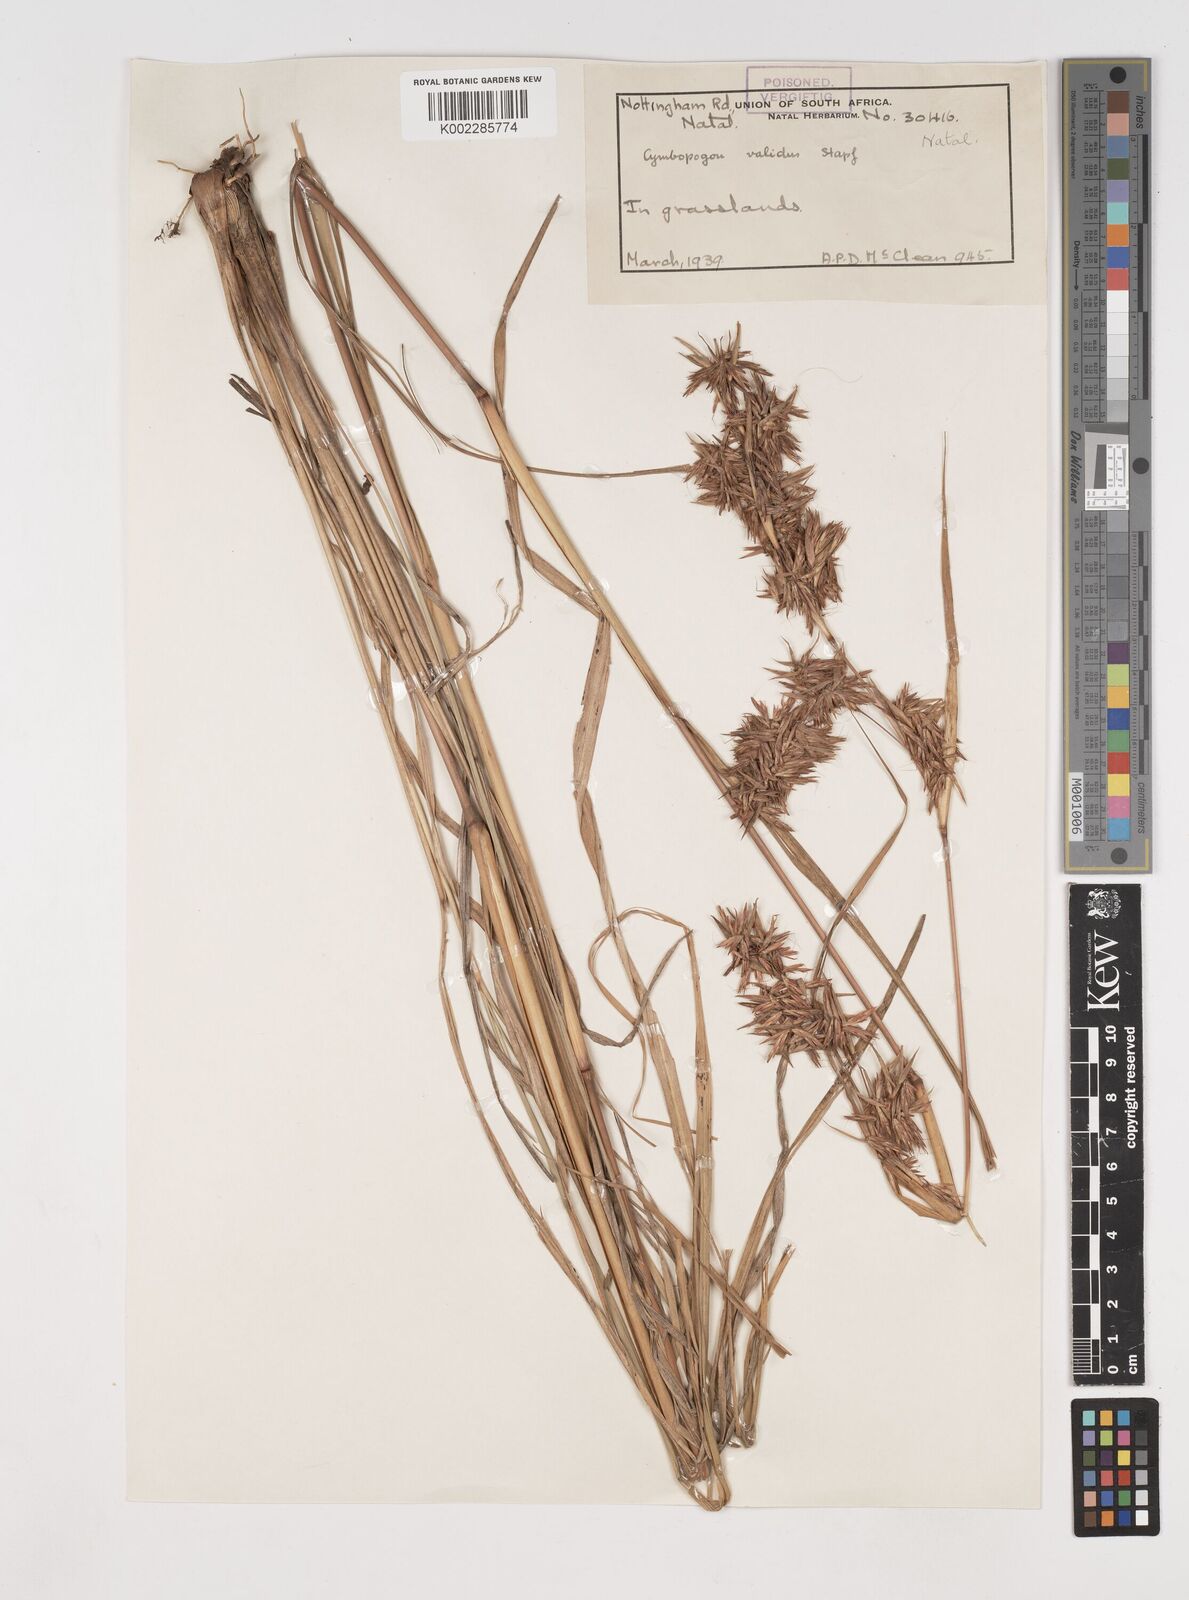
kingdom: Plantae
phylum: Tracheophyta
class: Liliopsida
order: Poales
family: Poaceae
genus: Cymbopogon
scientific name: Cymbopogon nardus
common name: Giant turpentine grass
